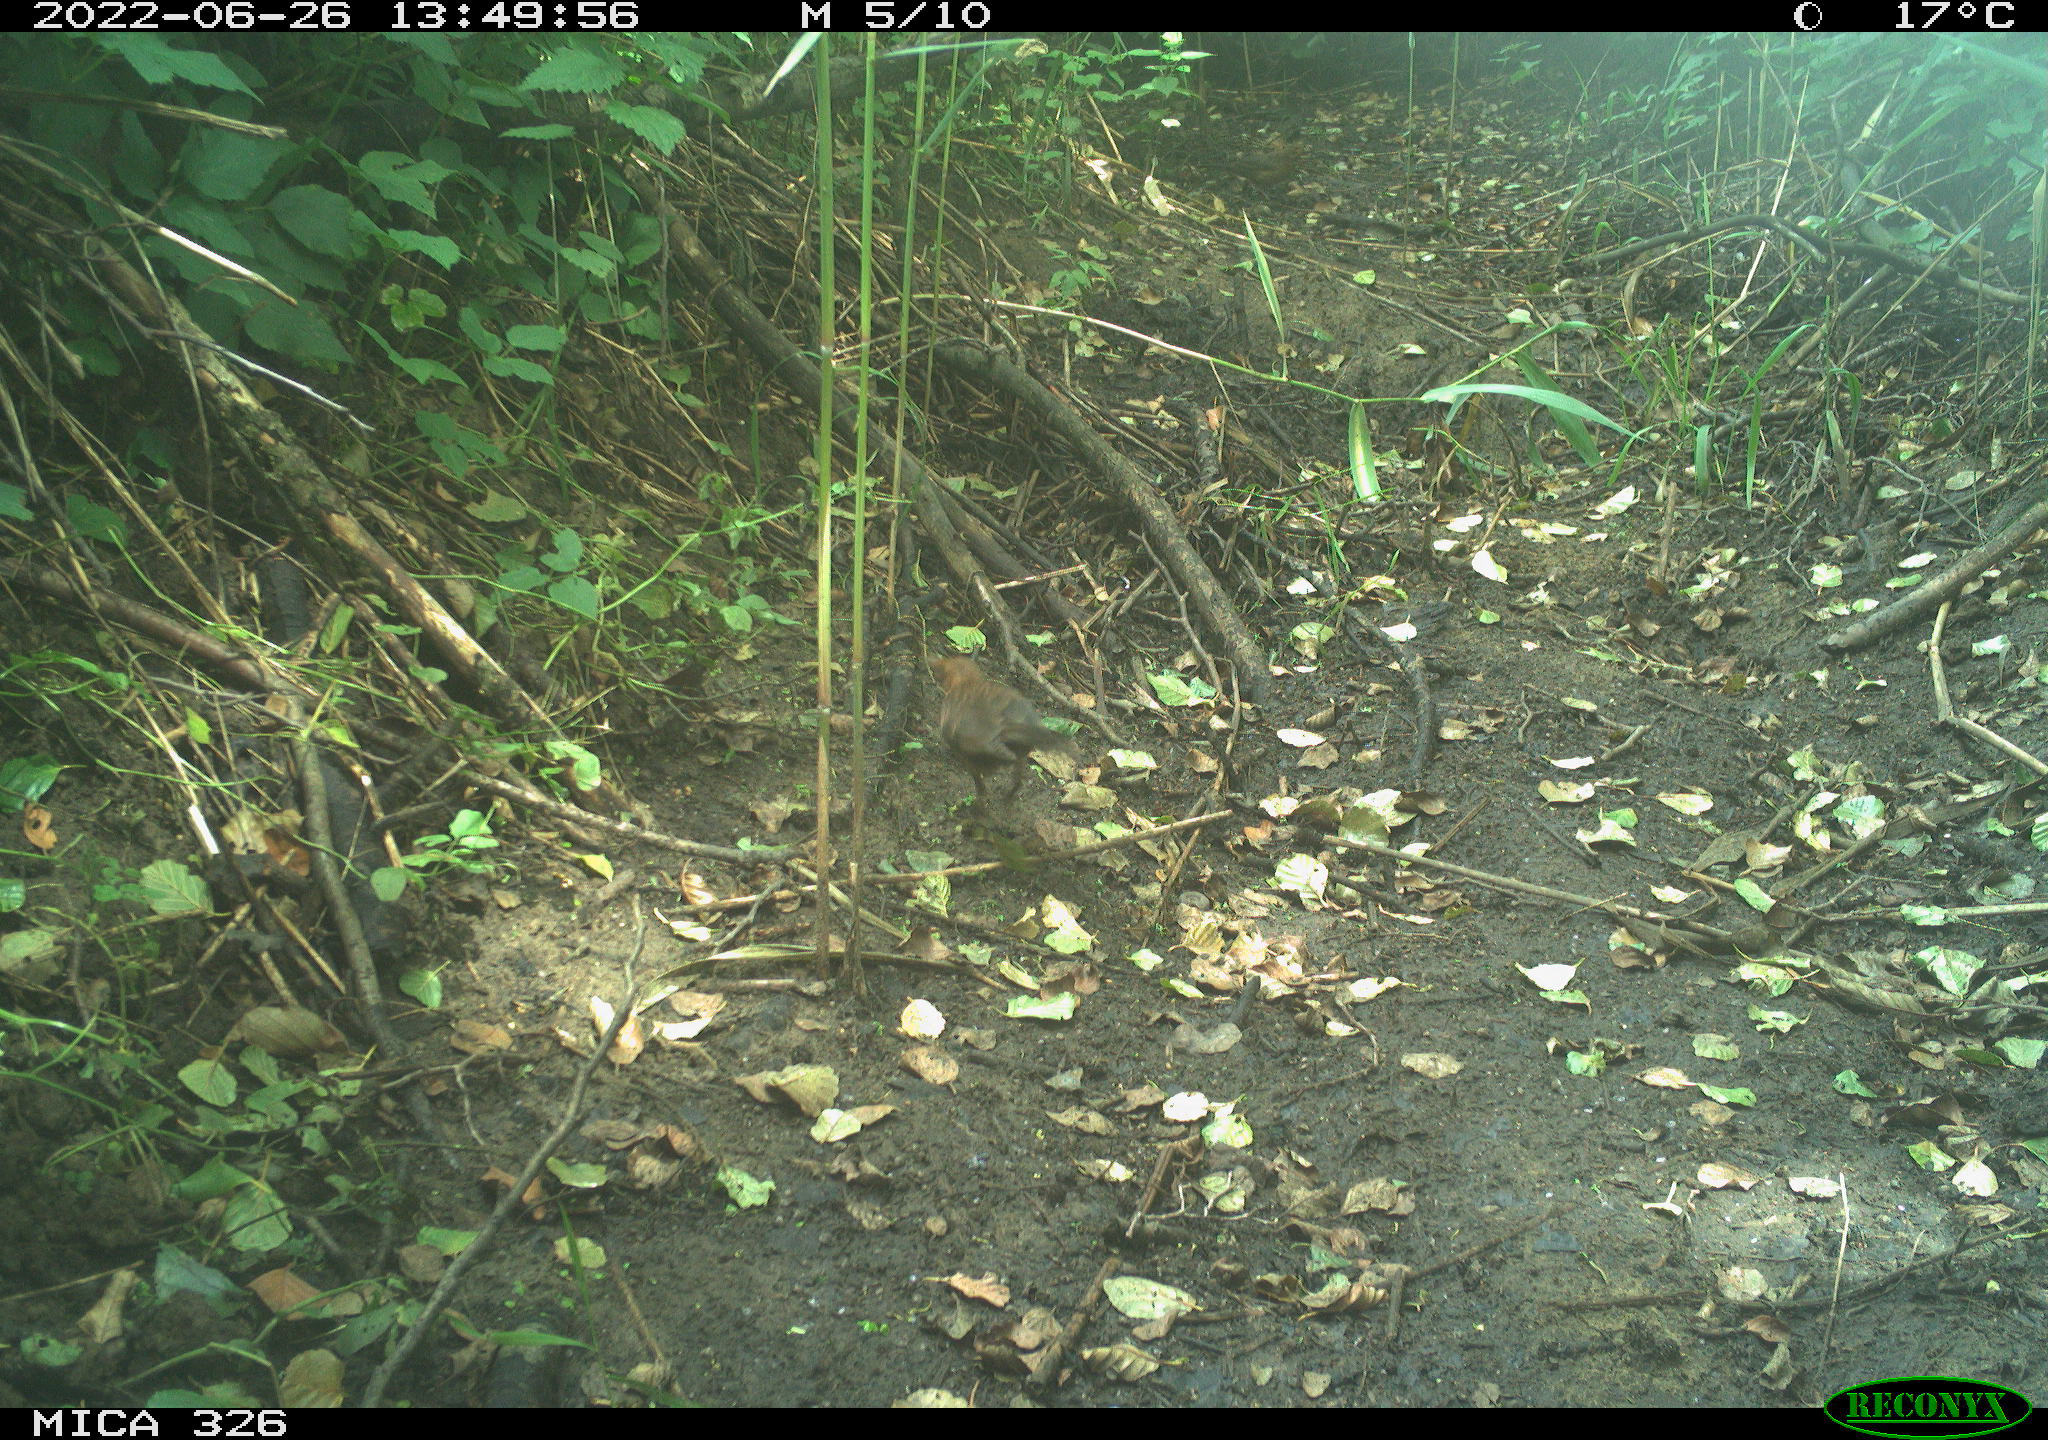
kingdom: Animalia
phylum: Chordata
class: Aves
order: Passeriformes
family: Turdidae
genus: Turdus
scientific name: Turdus merula
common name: Common blackbird
